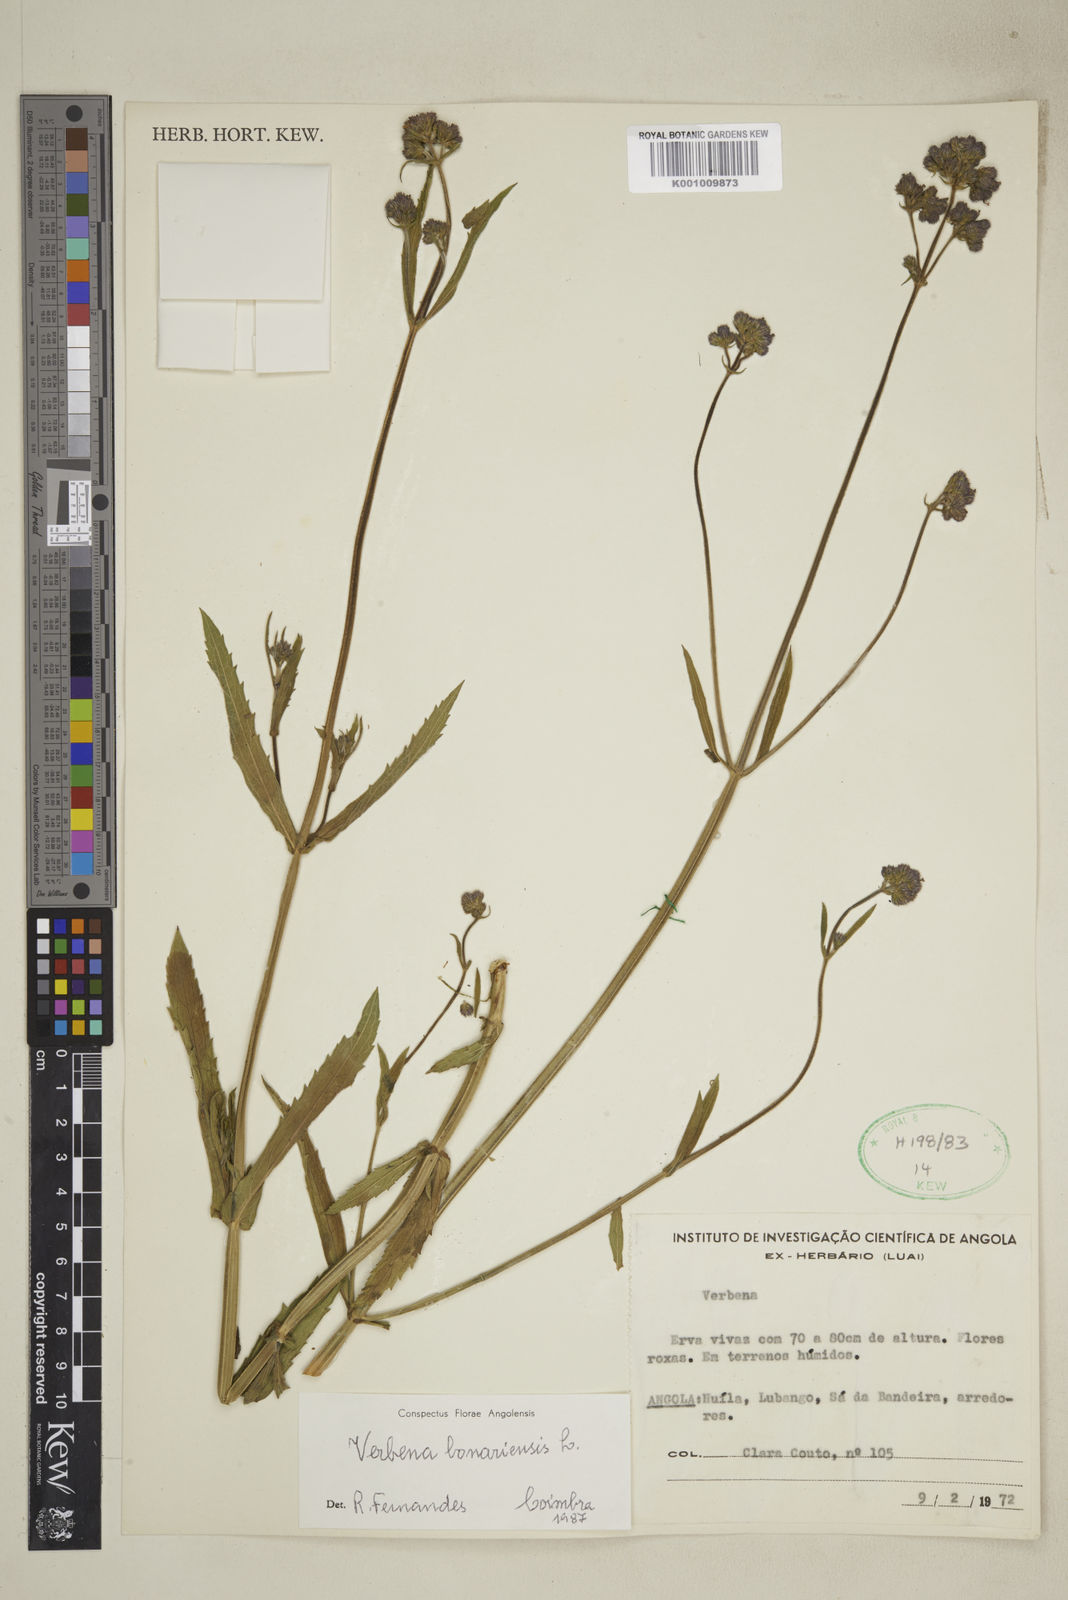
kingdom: Plantae
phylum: Tracheophyta
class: Magnoliopsida
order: Lamiales
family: Verbenaceae
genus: Lantana
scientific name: Lantana
